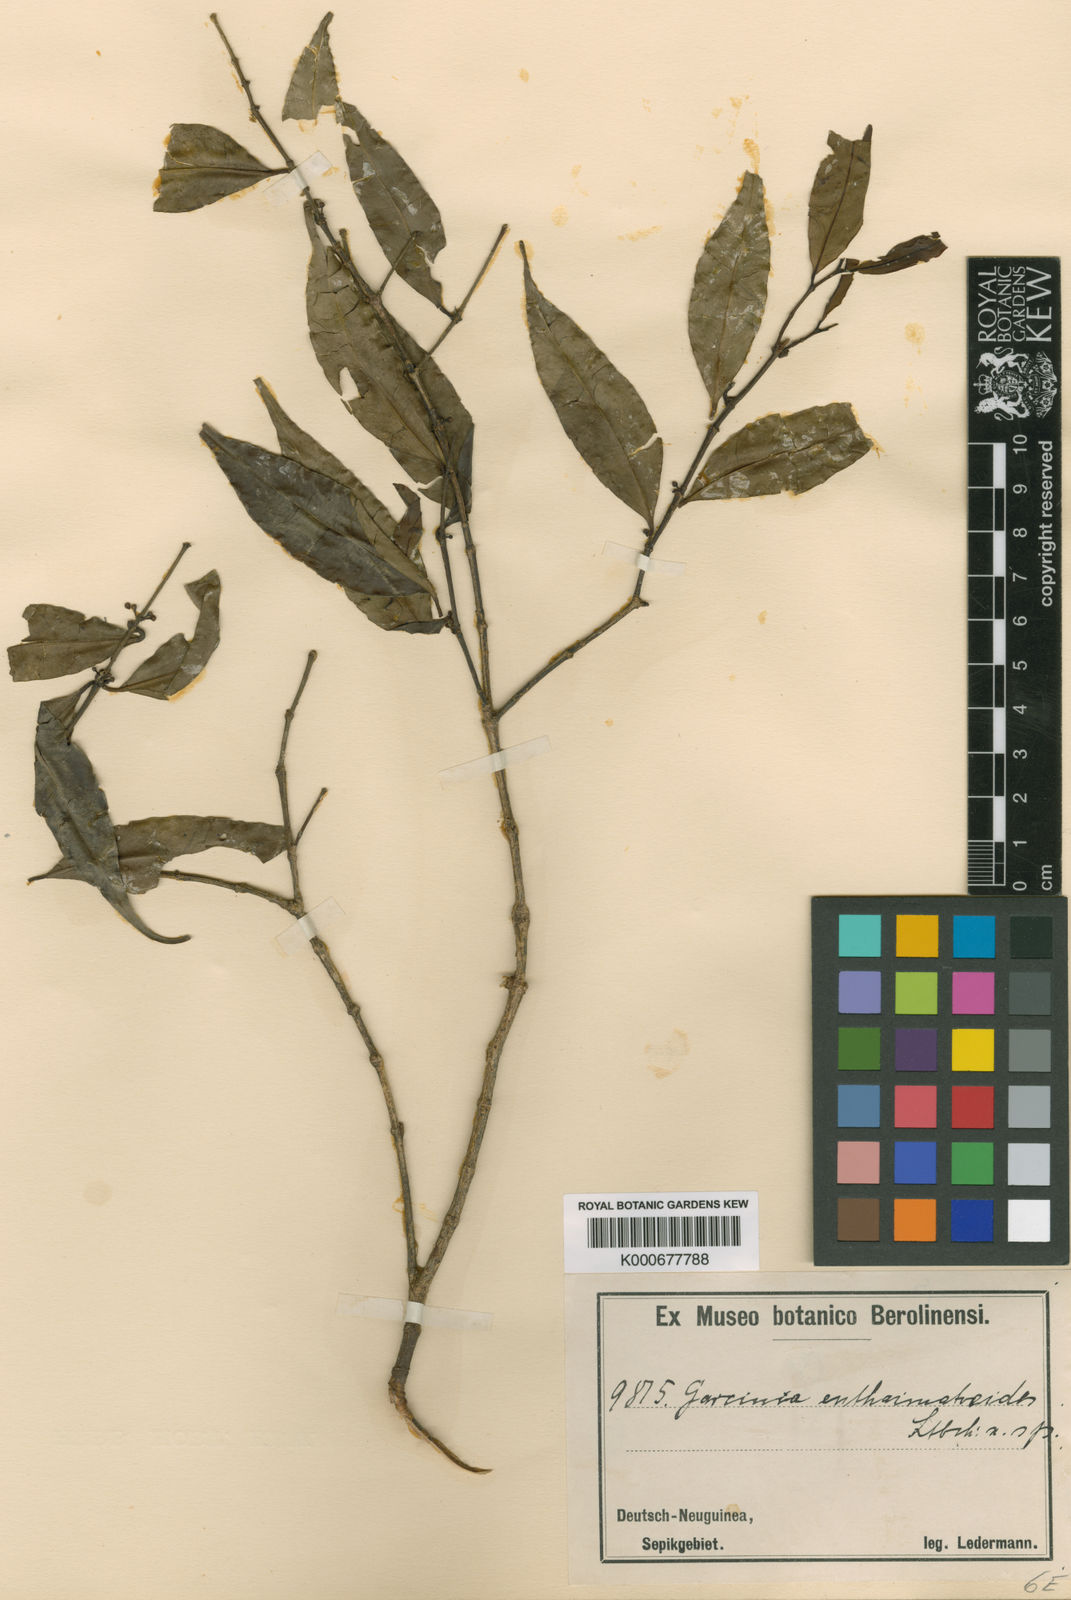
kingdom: Plantae
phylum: Tracheophyta
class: Magnoliopsida
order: Malpighiales
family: Clusiaceae
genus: Garcinia
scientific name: Garcinia enthaematoeides
